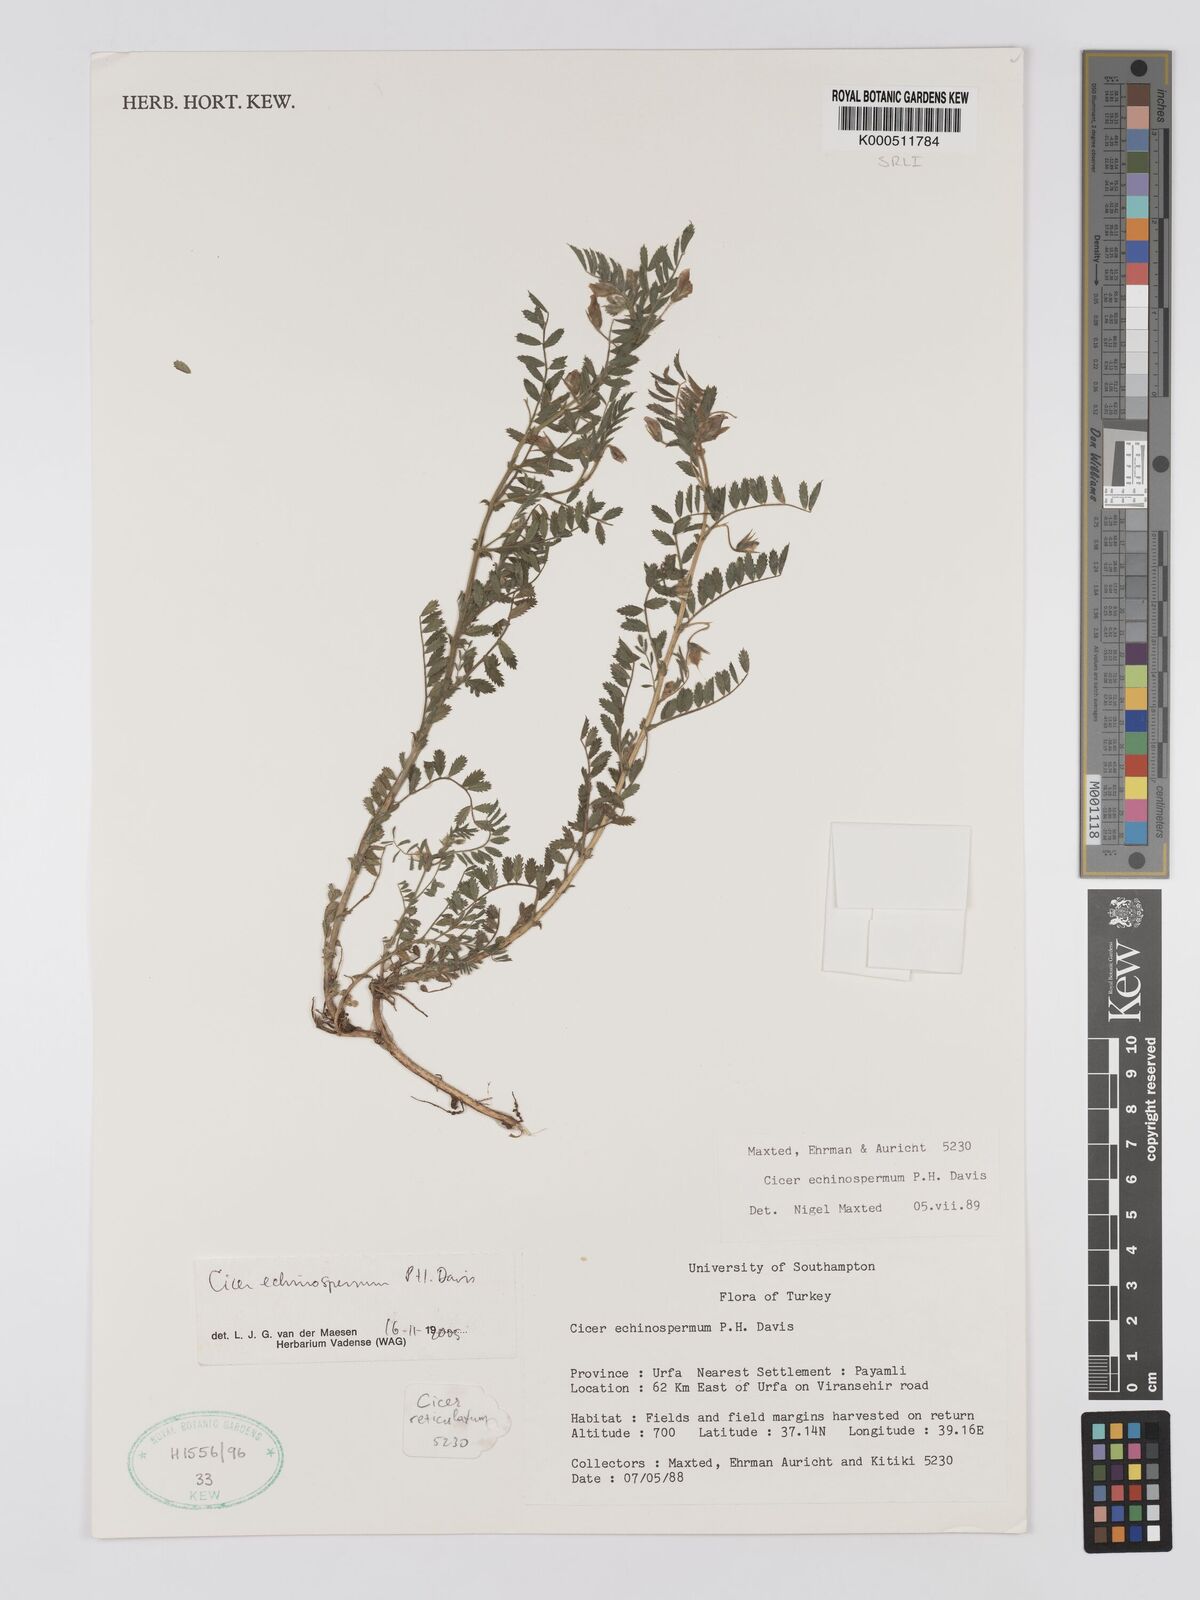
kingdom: Plantae
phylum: Tracheophyta
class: Magnoliopsida
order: Fabales
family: Fabaceae
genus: Cicer
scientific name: Cicer echinospermum
